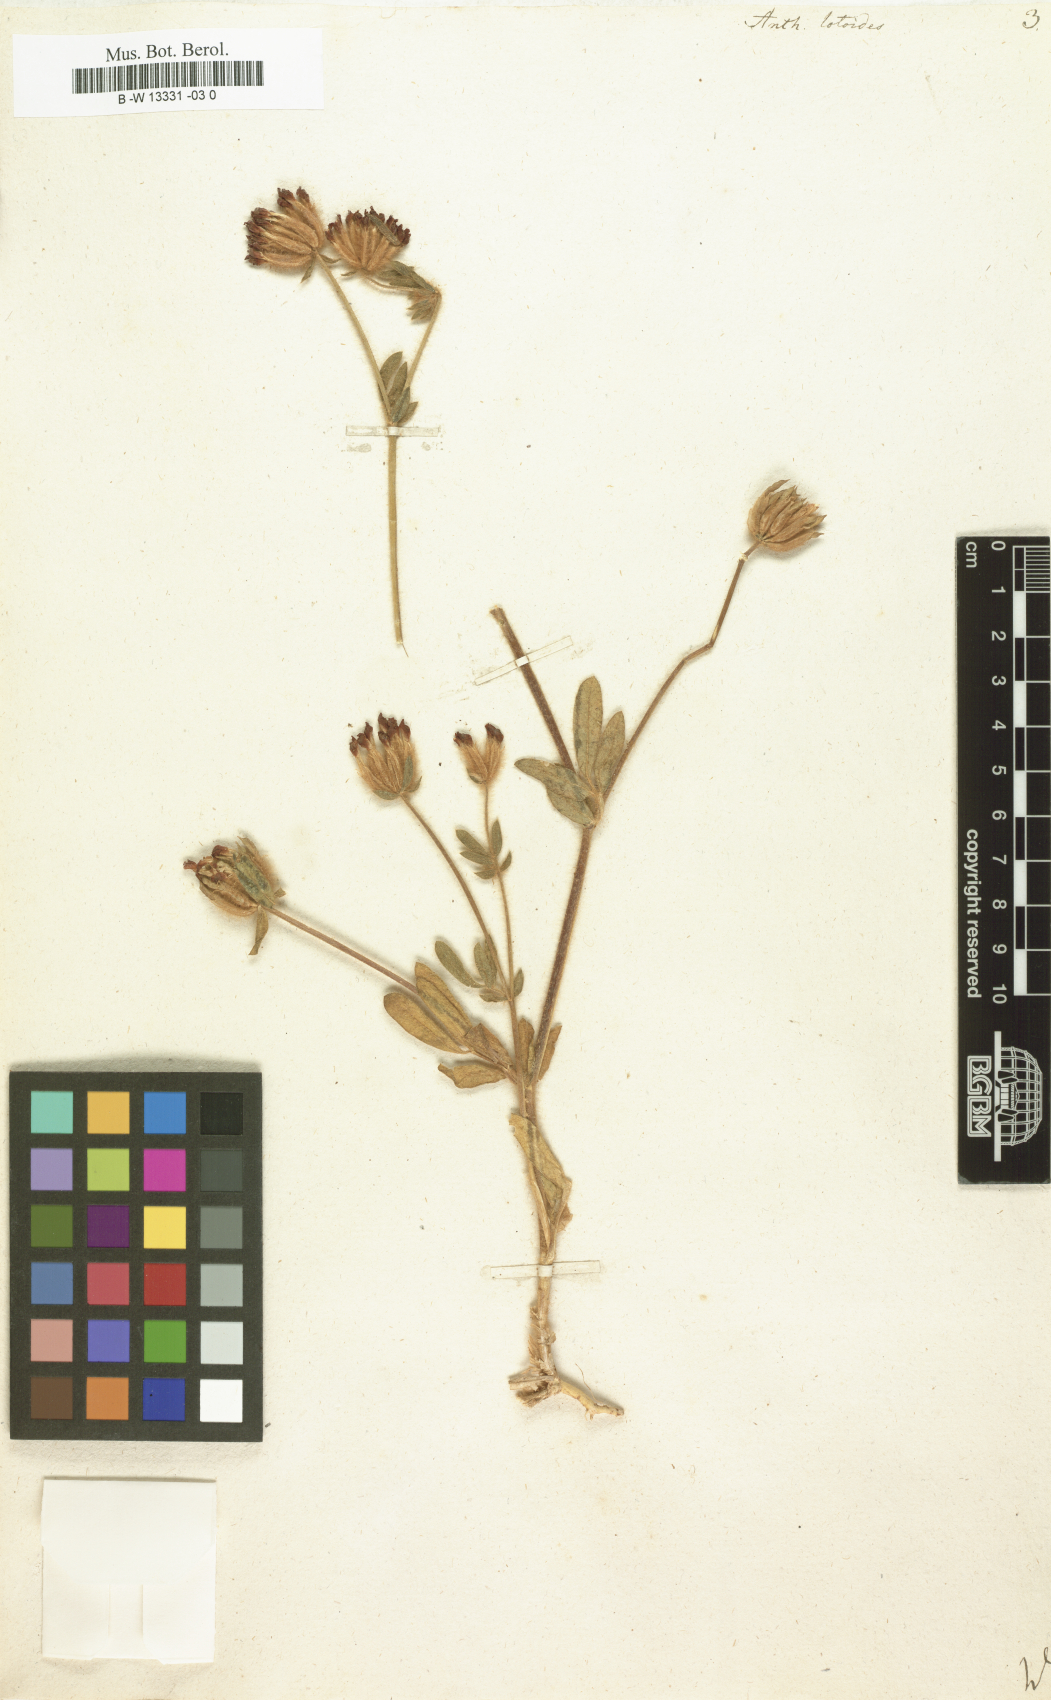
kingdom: Plantae
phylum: Tracheophyta
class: Magnoliopsida
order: Fabales
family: Fabaceae
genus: Anthyllis
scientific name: Anthyllis lotoides
